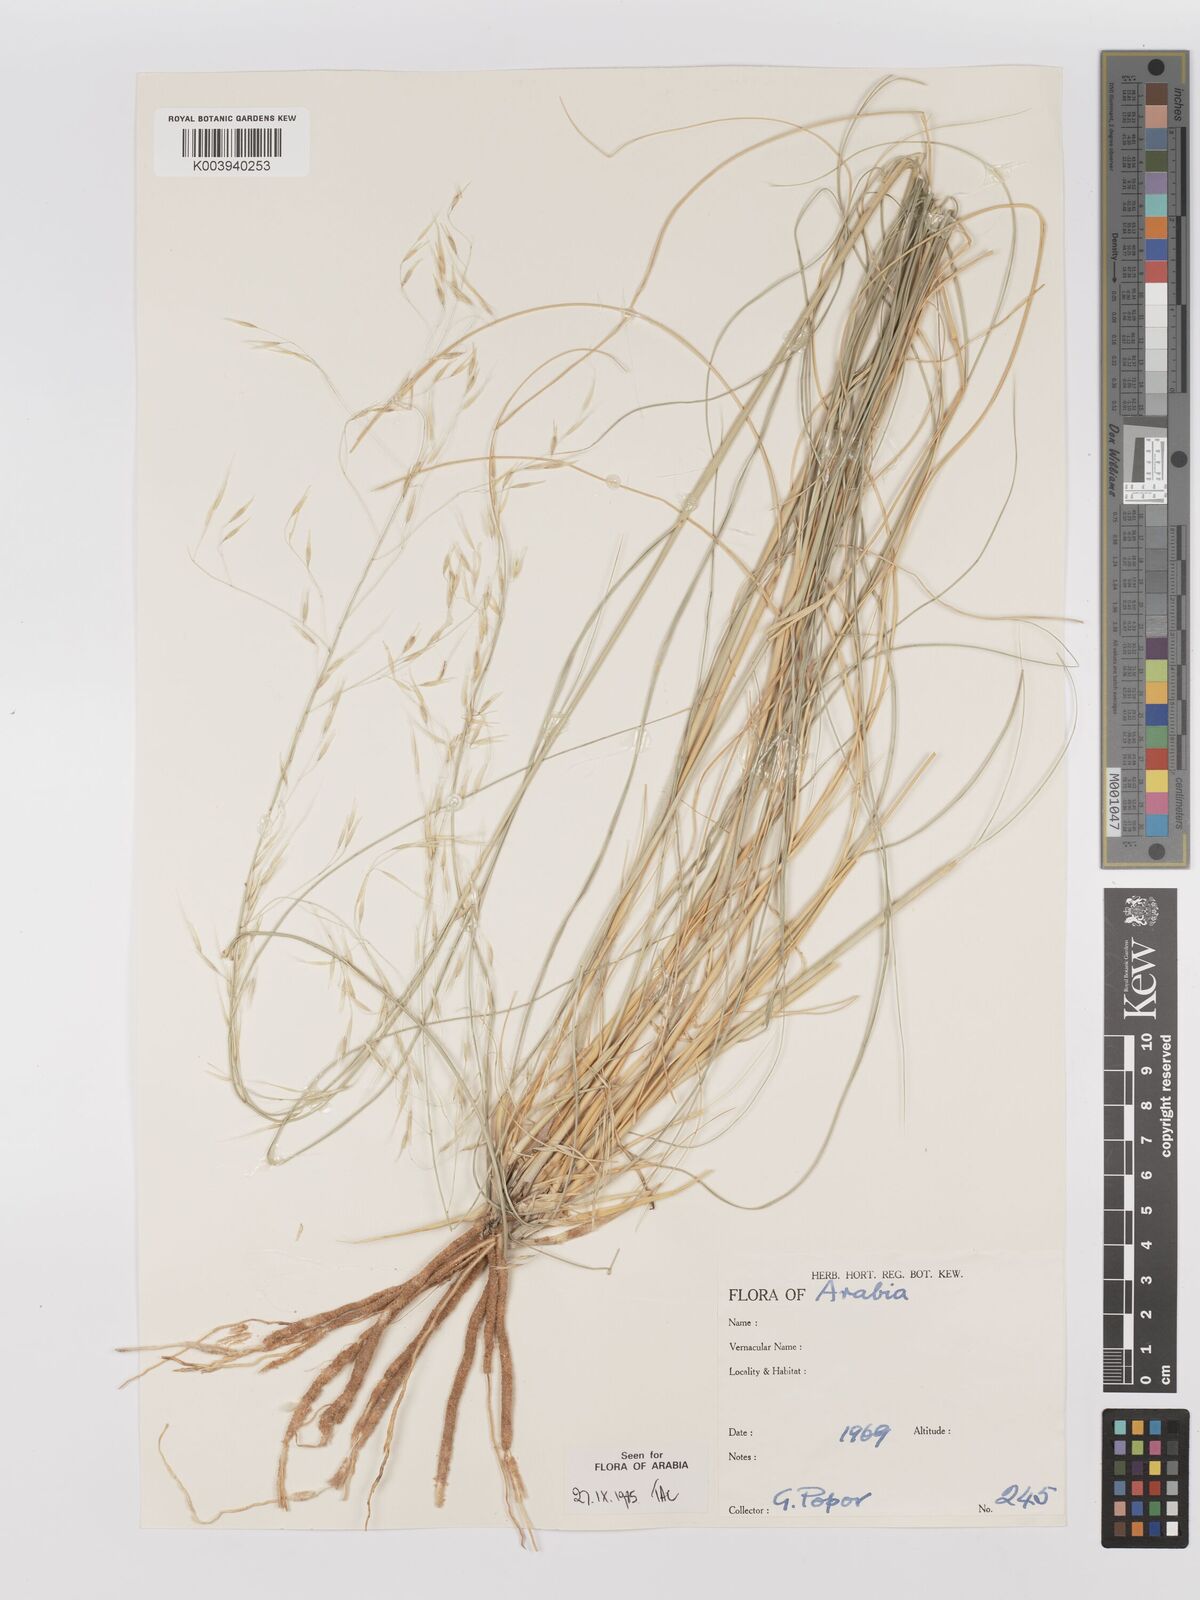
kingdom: Plantae
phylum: Tracheophyta
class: Liliopsida
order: Poales
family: Poaceae
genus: Stipagrostis
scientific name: Stipagrostis drarii
